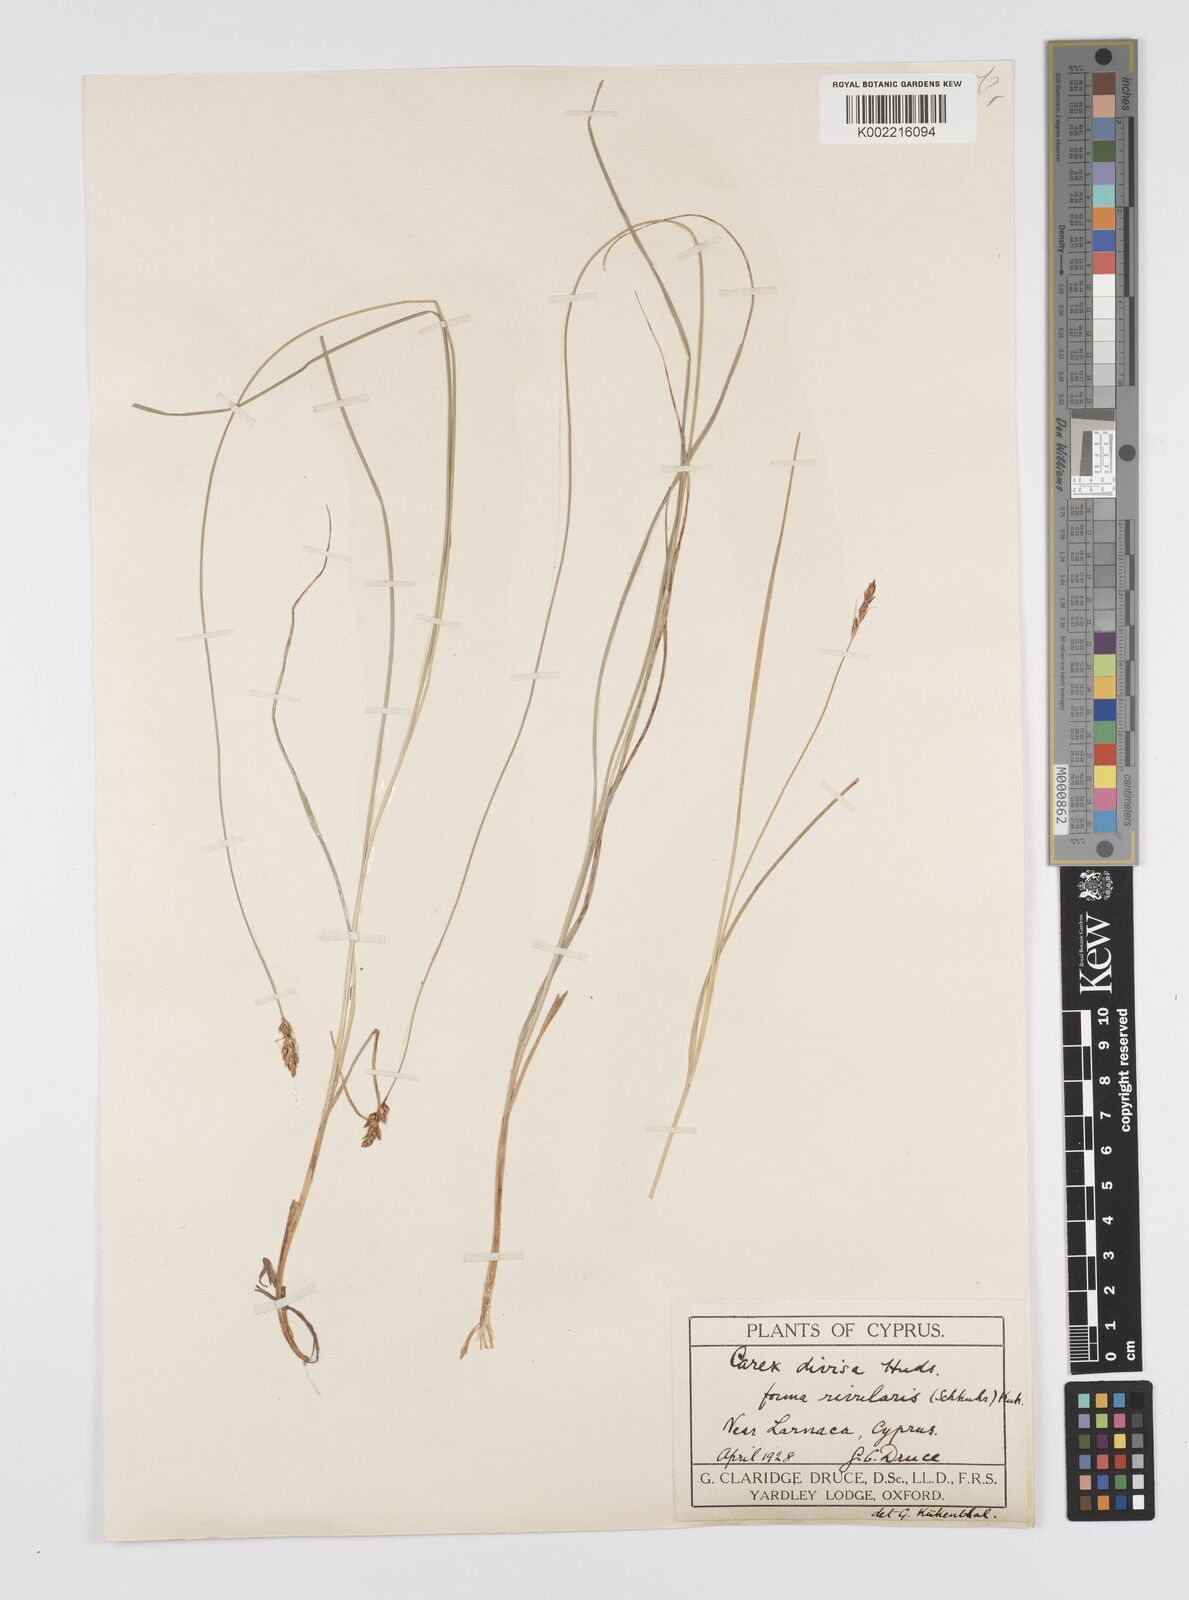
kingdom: Plantae
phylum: Tracheophyta
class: Liliopsida
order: Poales
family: Cyperaceae
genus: Carex
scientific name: Carex divisa
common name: Divided sedge
